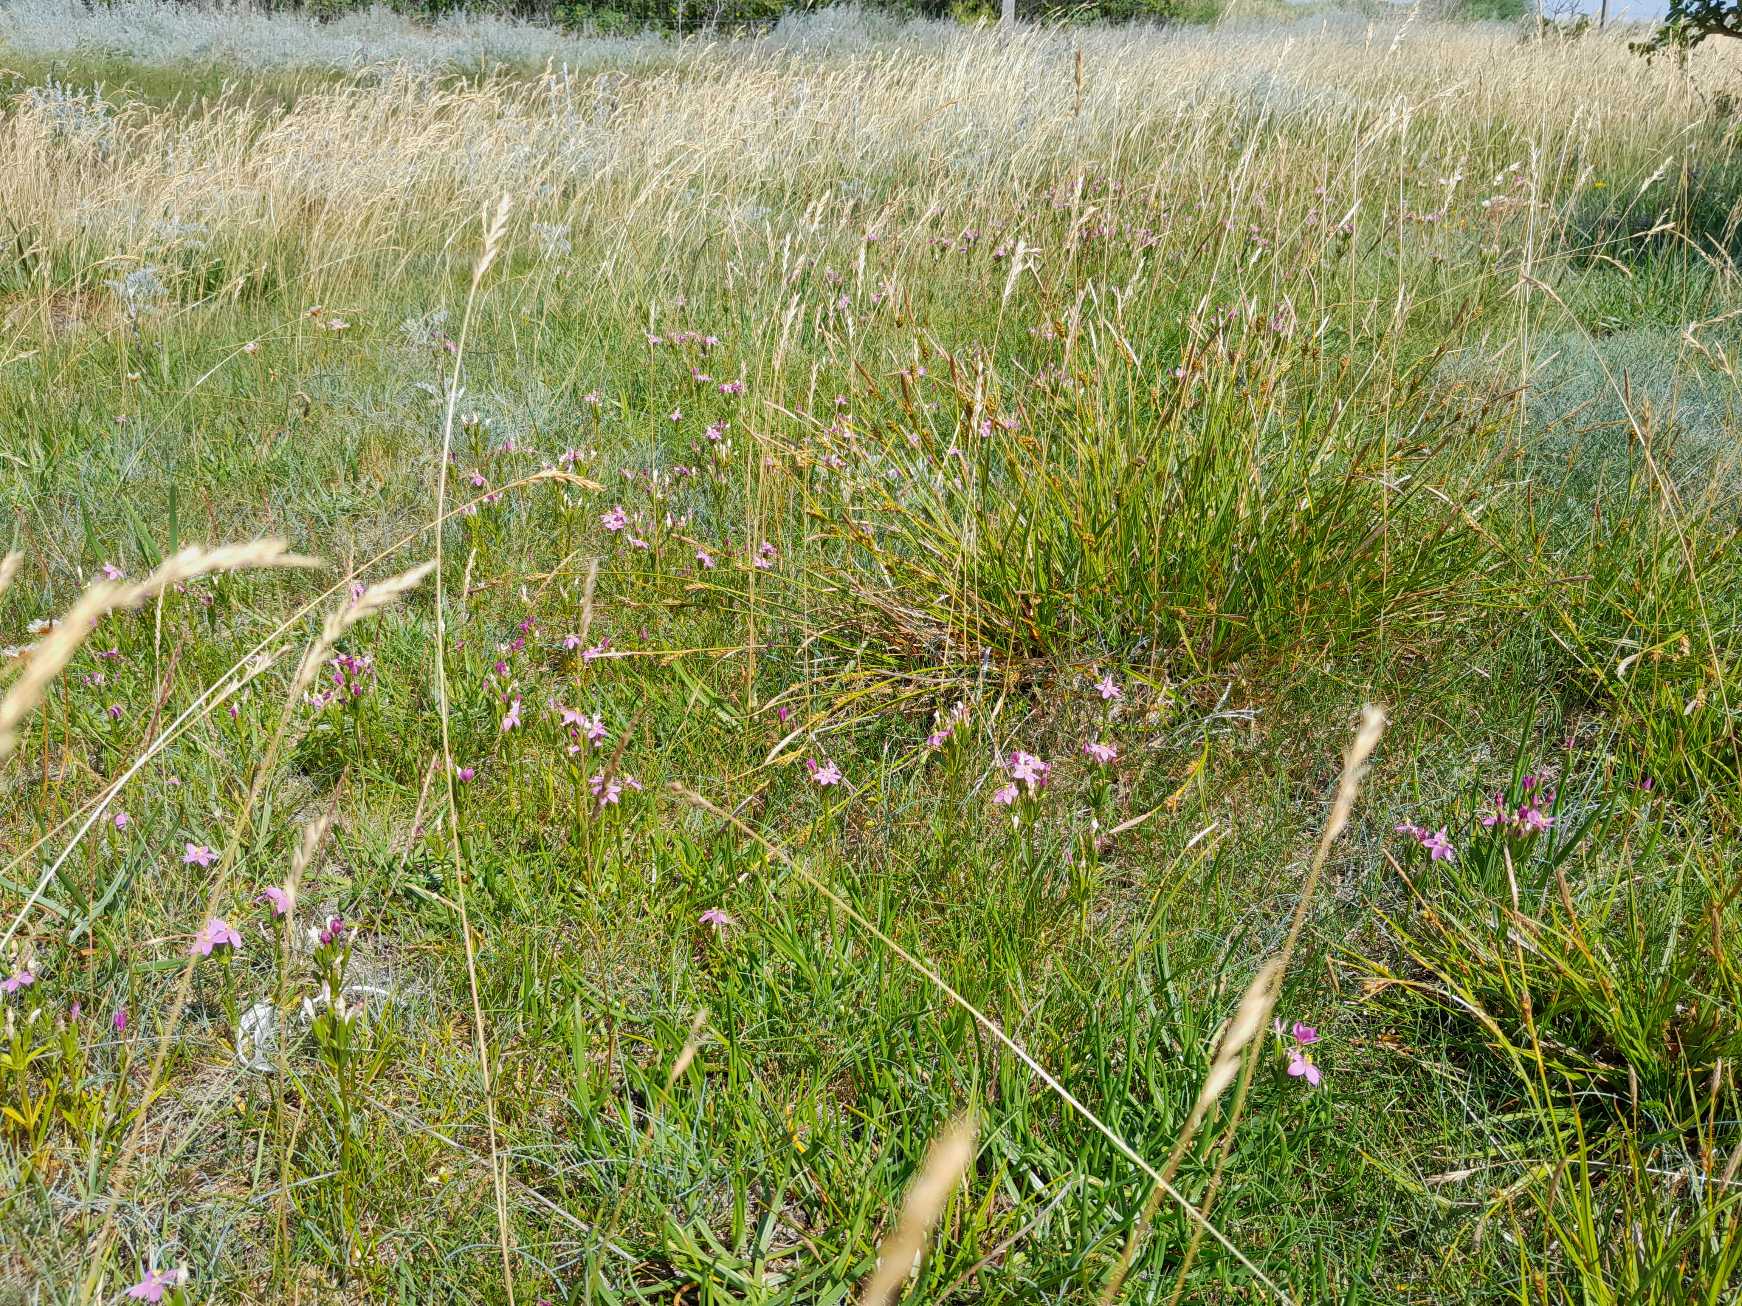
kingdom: Plantae
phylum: Tracheophyta
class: Magnoliopsida
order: Gentianales
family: Gentianaceae
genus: Centaurium
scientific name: Centaurium erythraea
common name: Mark-tusindgylden
